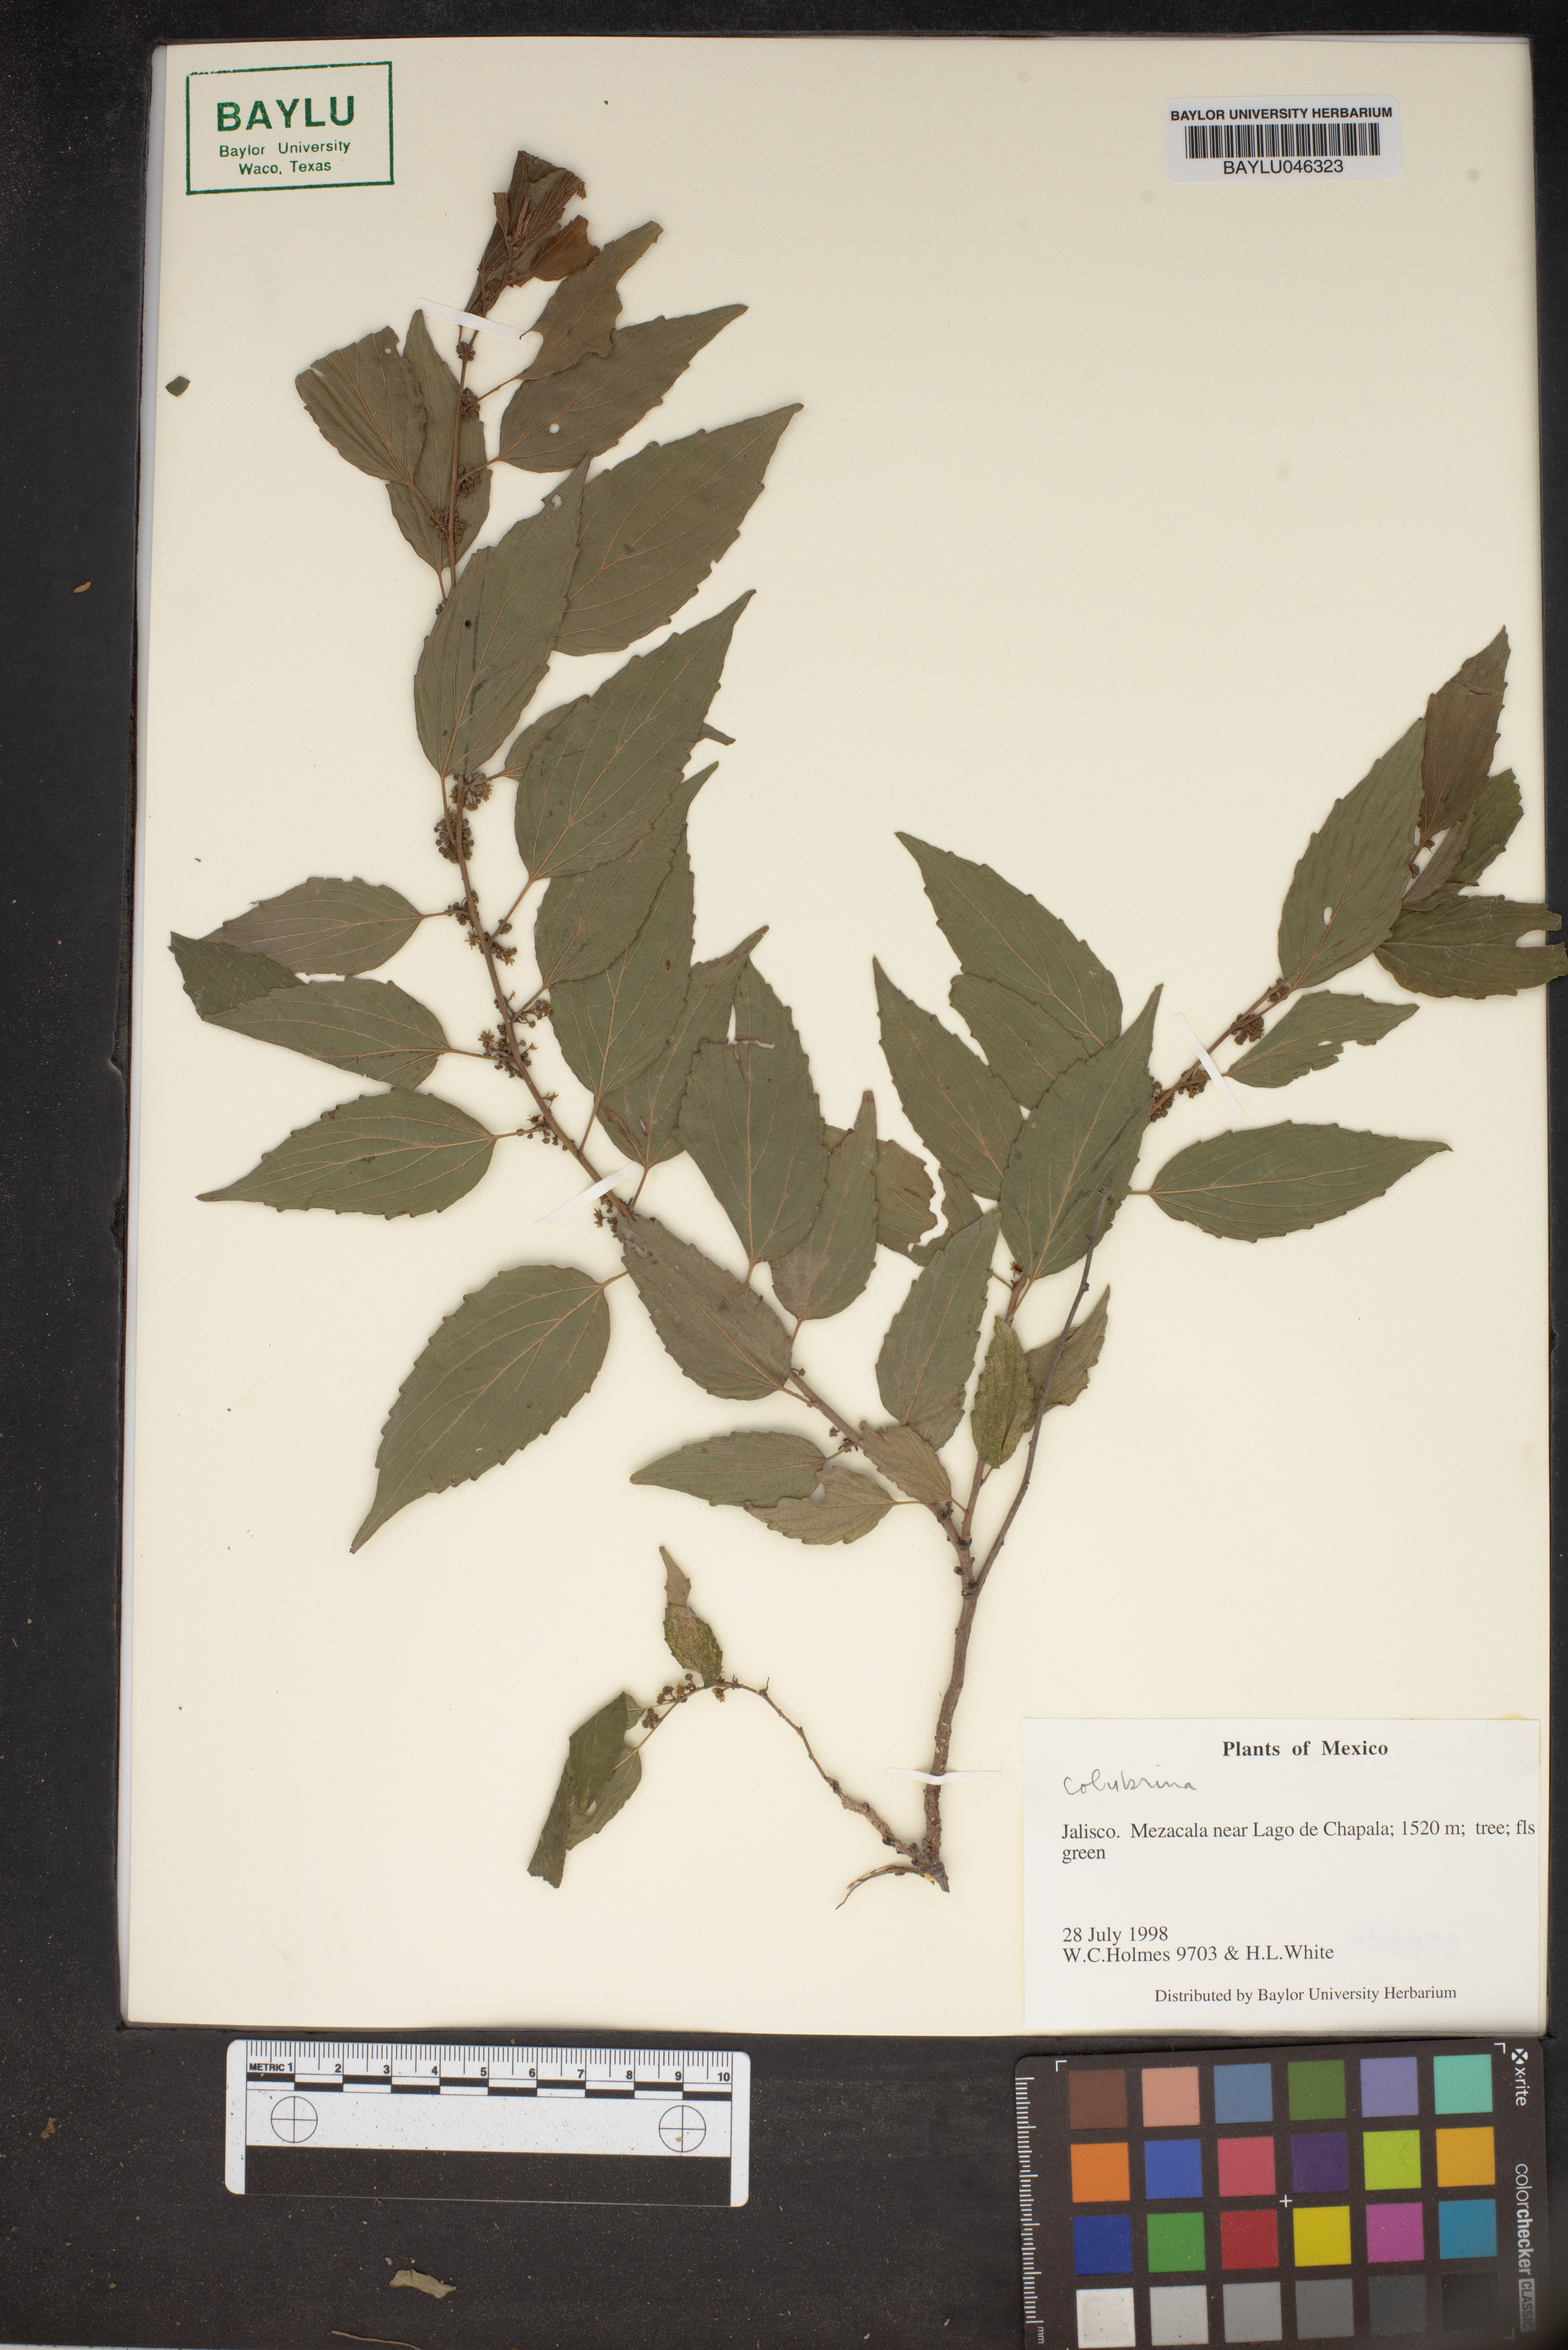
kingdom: Plantae
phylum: Tracheophyta
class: Magnoliopsida
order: Rosales
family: Rhamnaceae
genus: Colubrina
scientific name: Colubrina
